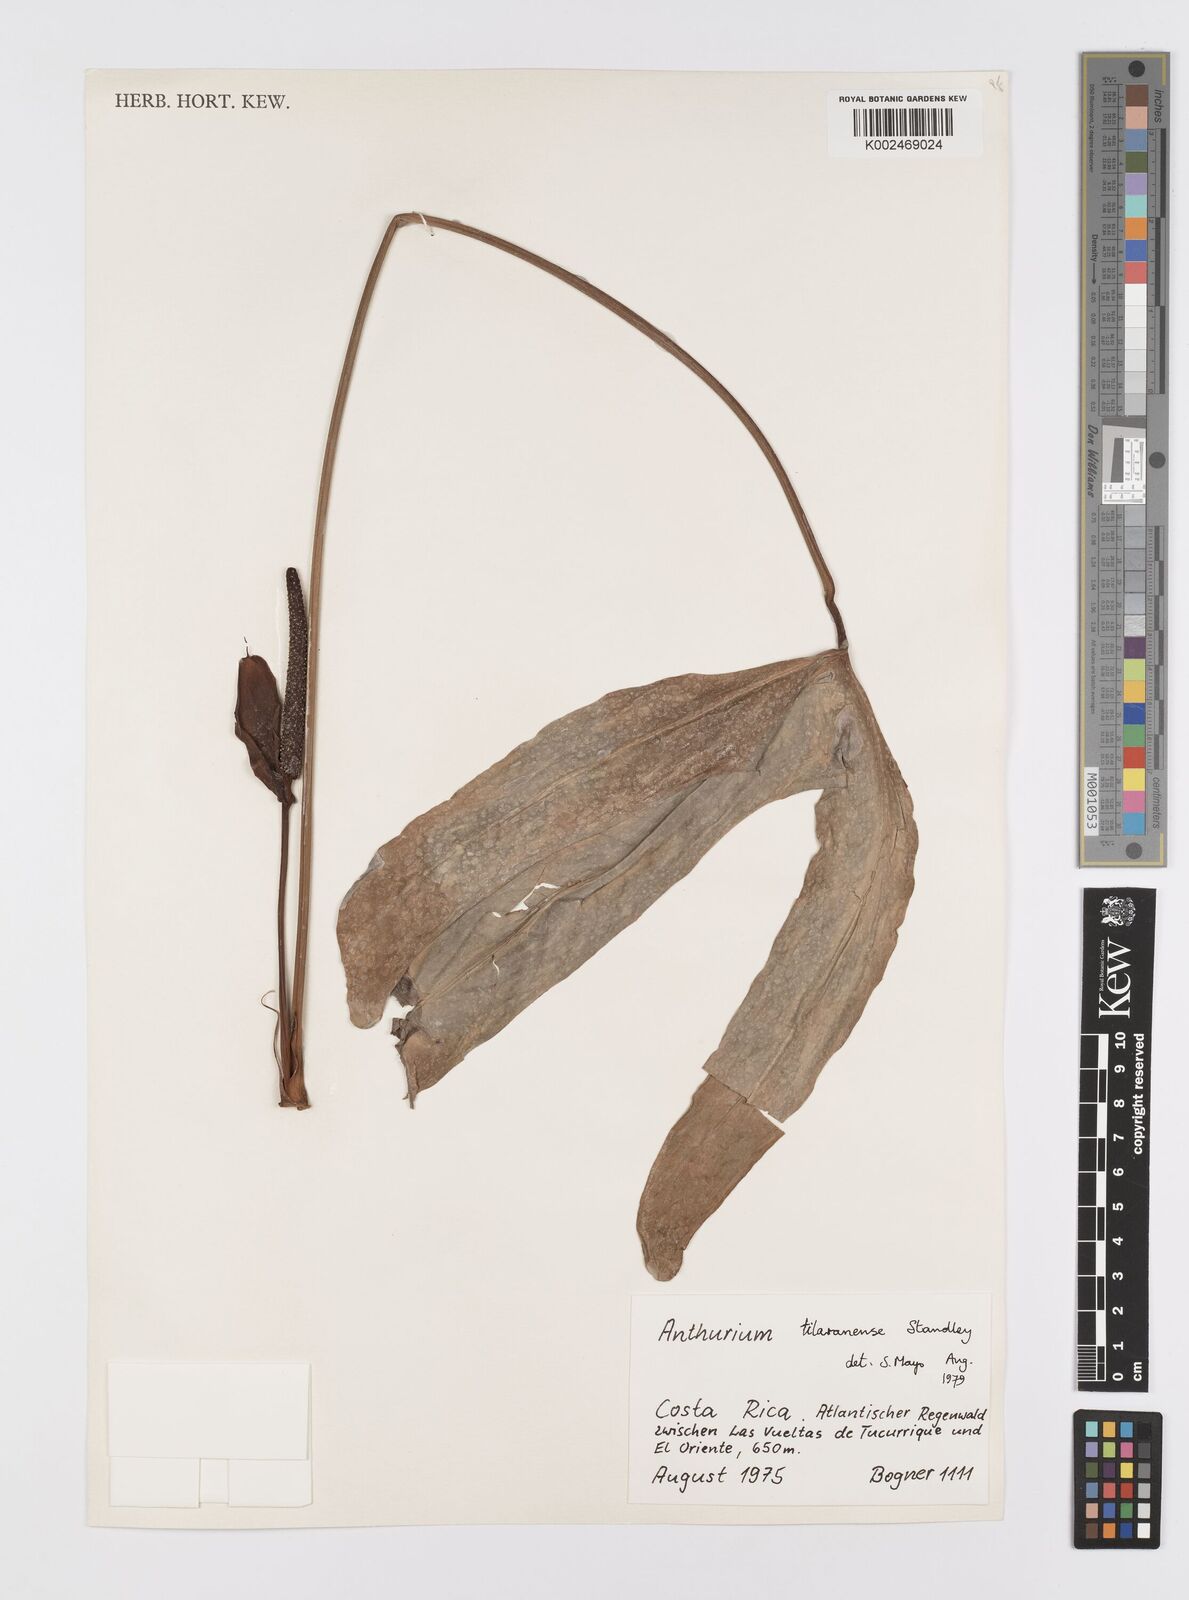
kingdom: Plantae
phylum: Tracheophyta
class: Liliopsida
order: Alismatales
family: Araceae
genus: Anthurium
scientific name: Anthurium tilaranense
